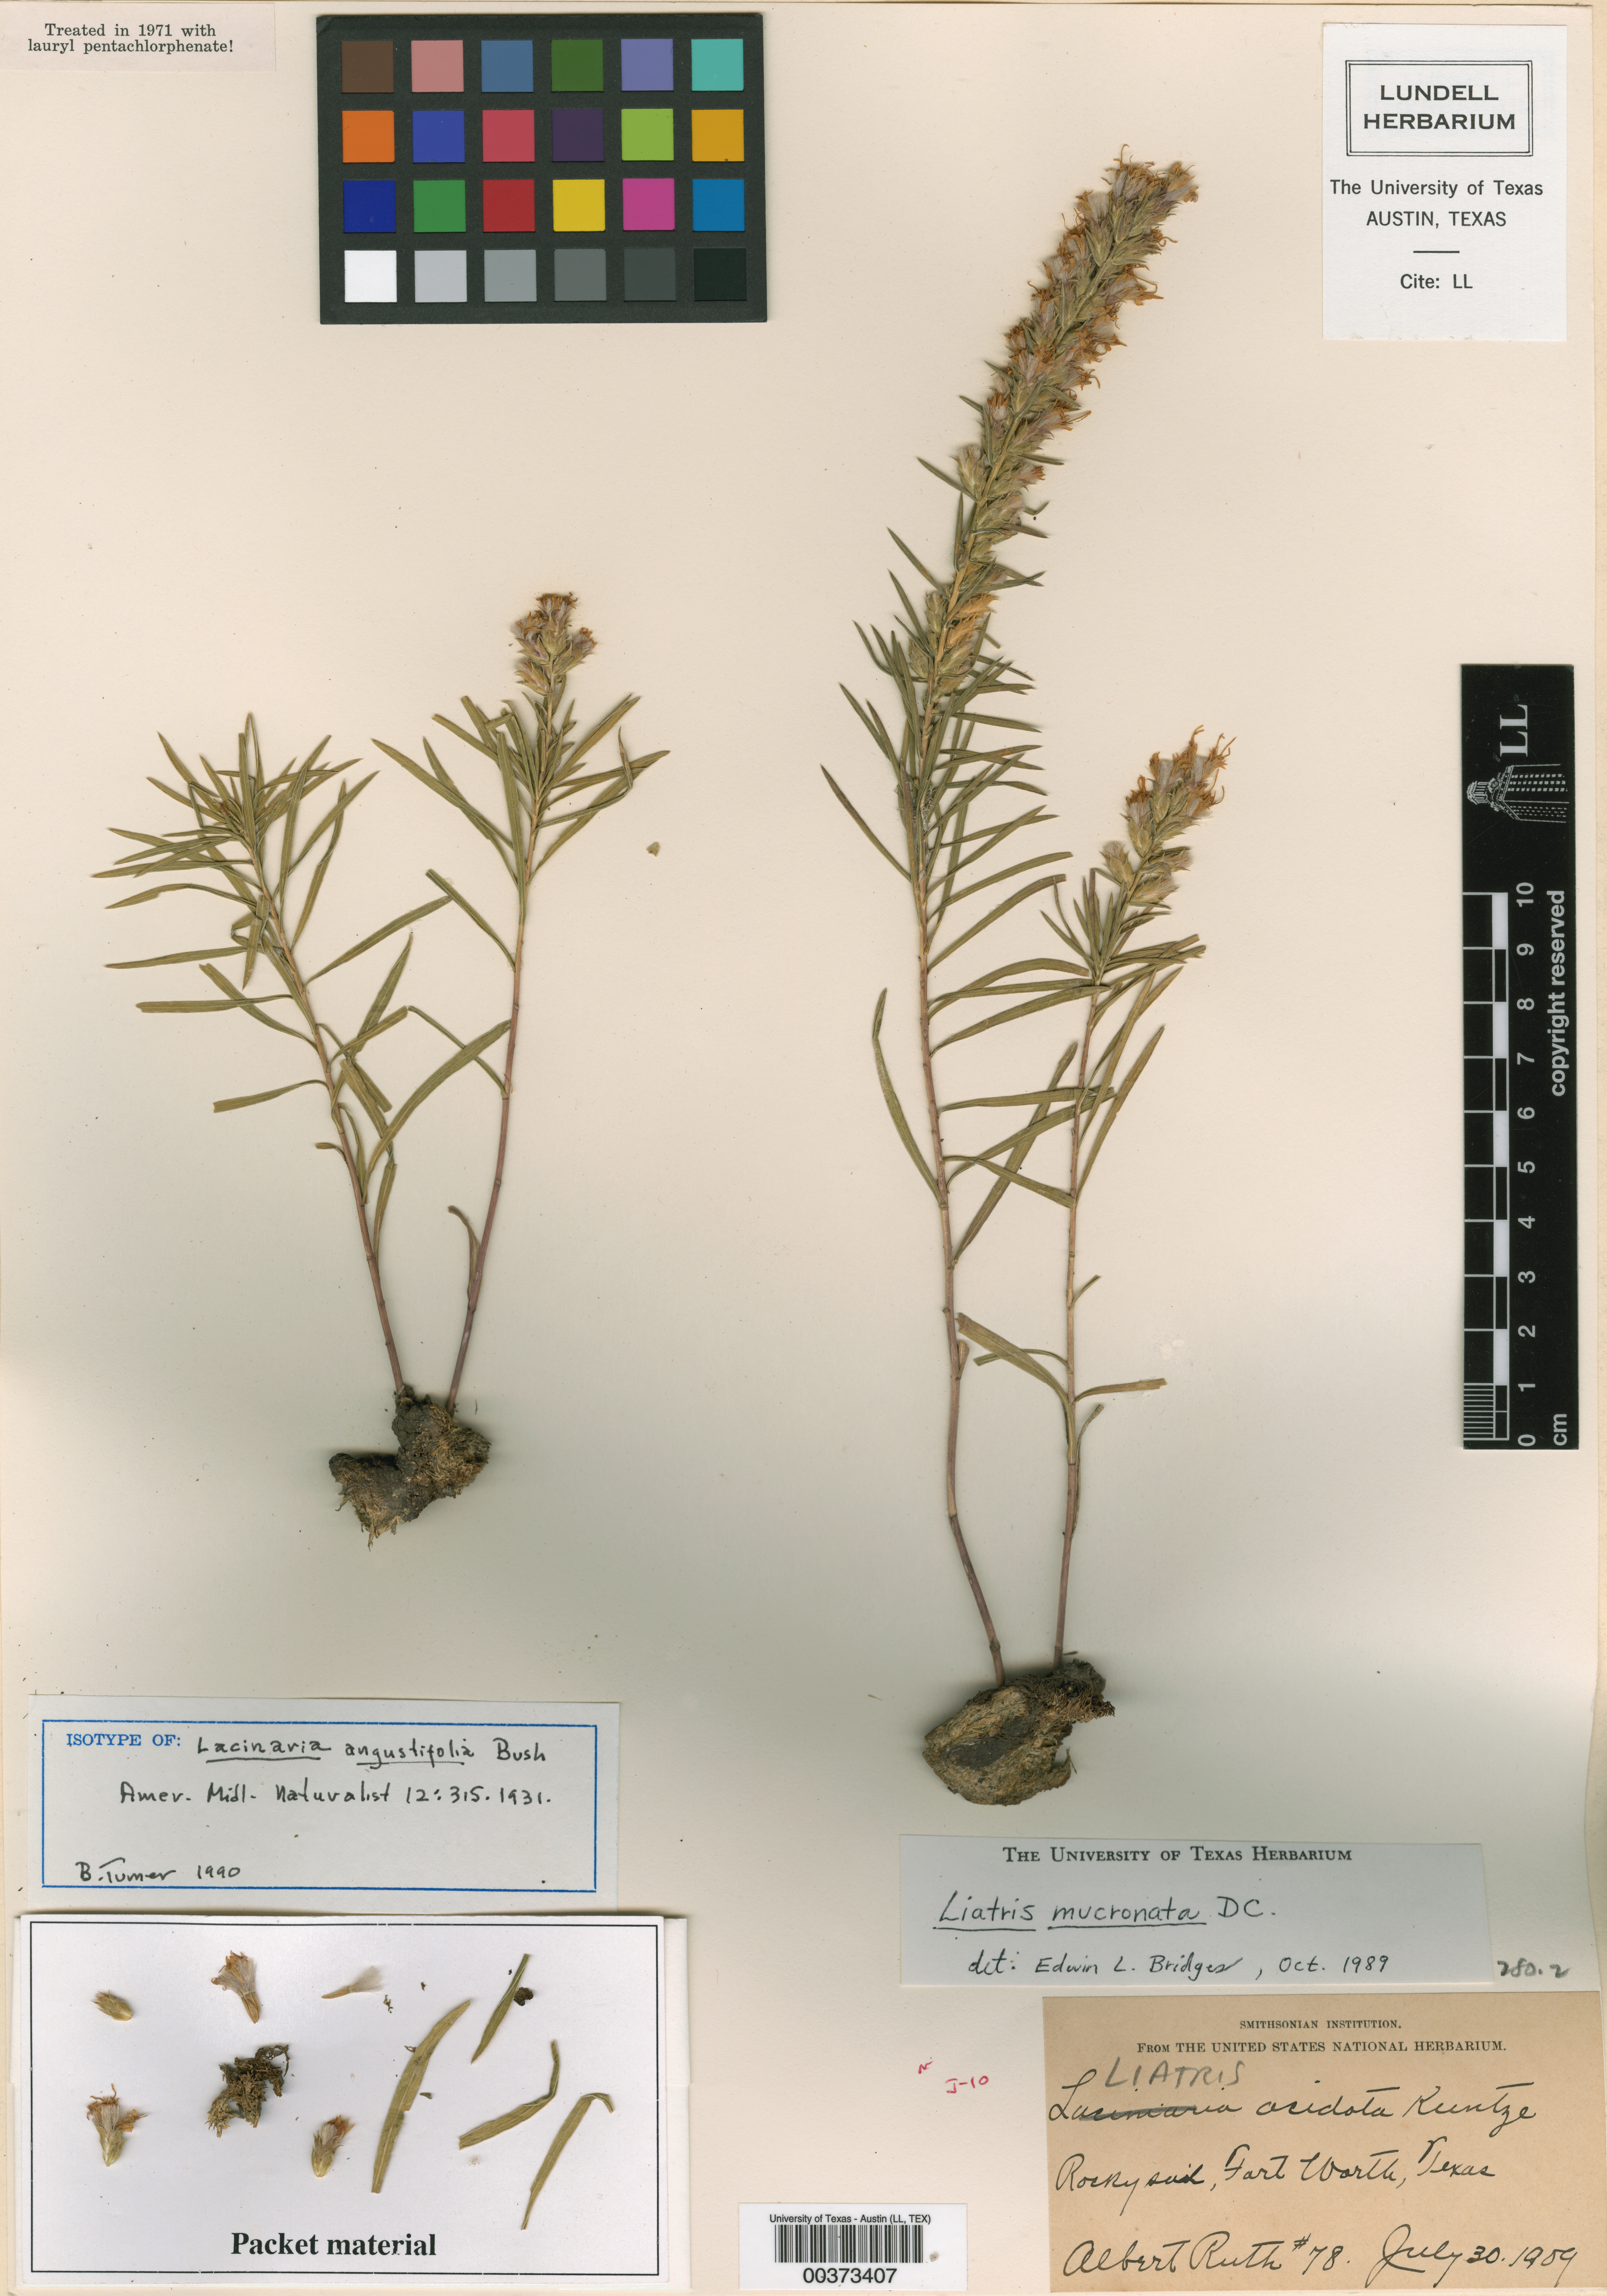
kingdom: Plantae
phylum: Tracheophyta
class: Magnoliopsida
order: Asterales
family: Asteraceae
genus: Liatris
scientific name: Liatris punctata
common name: Dotted gayfeather
